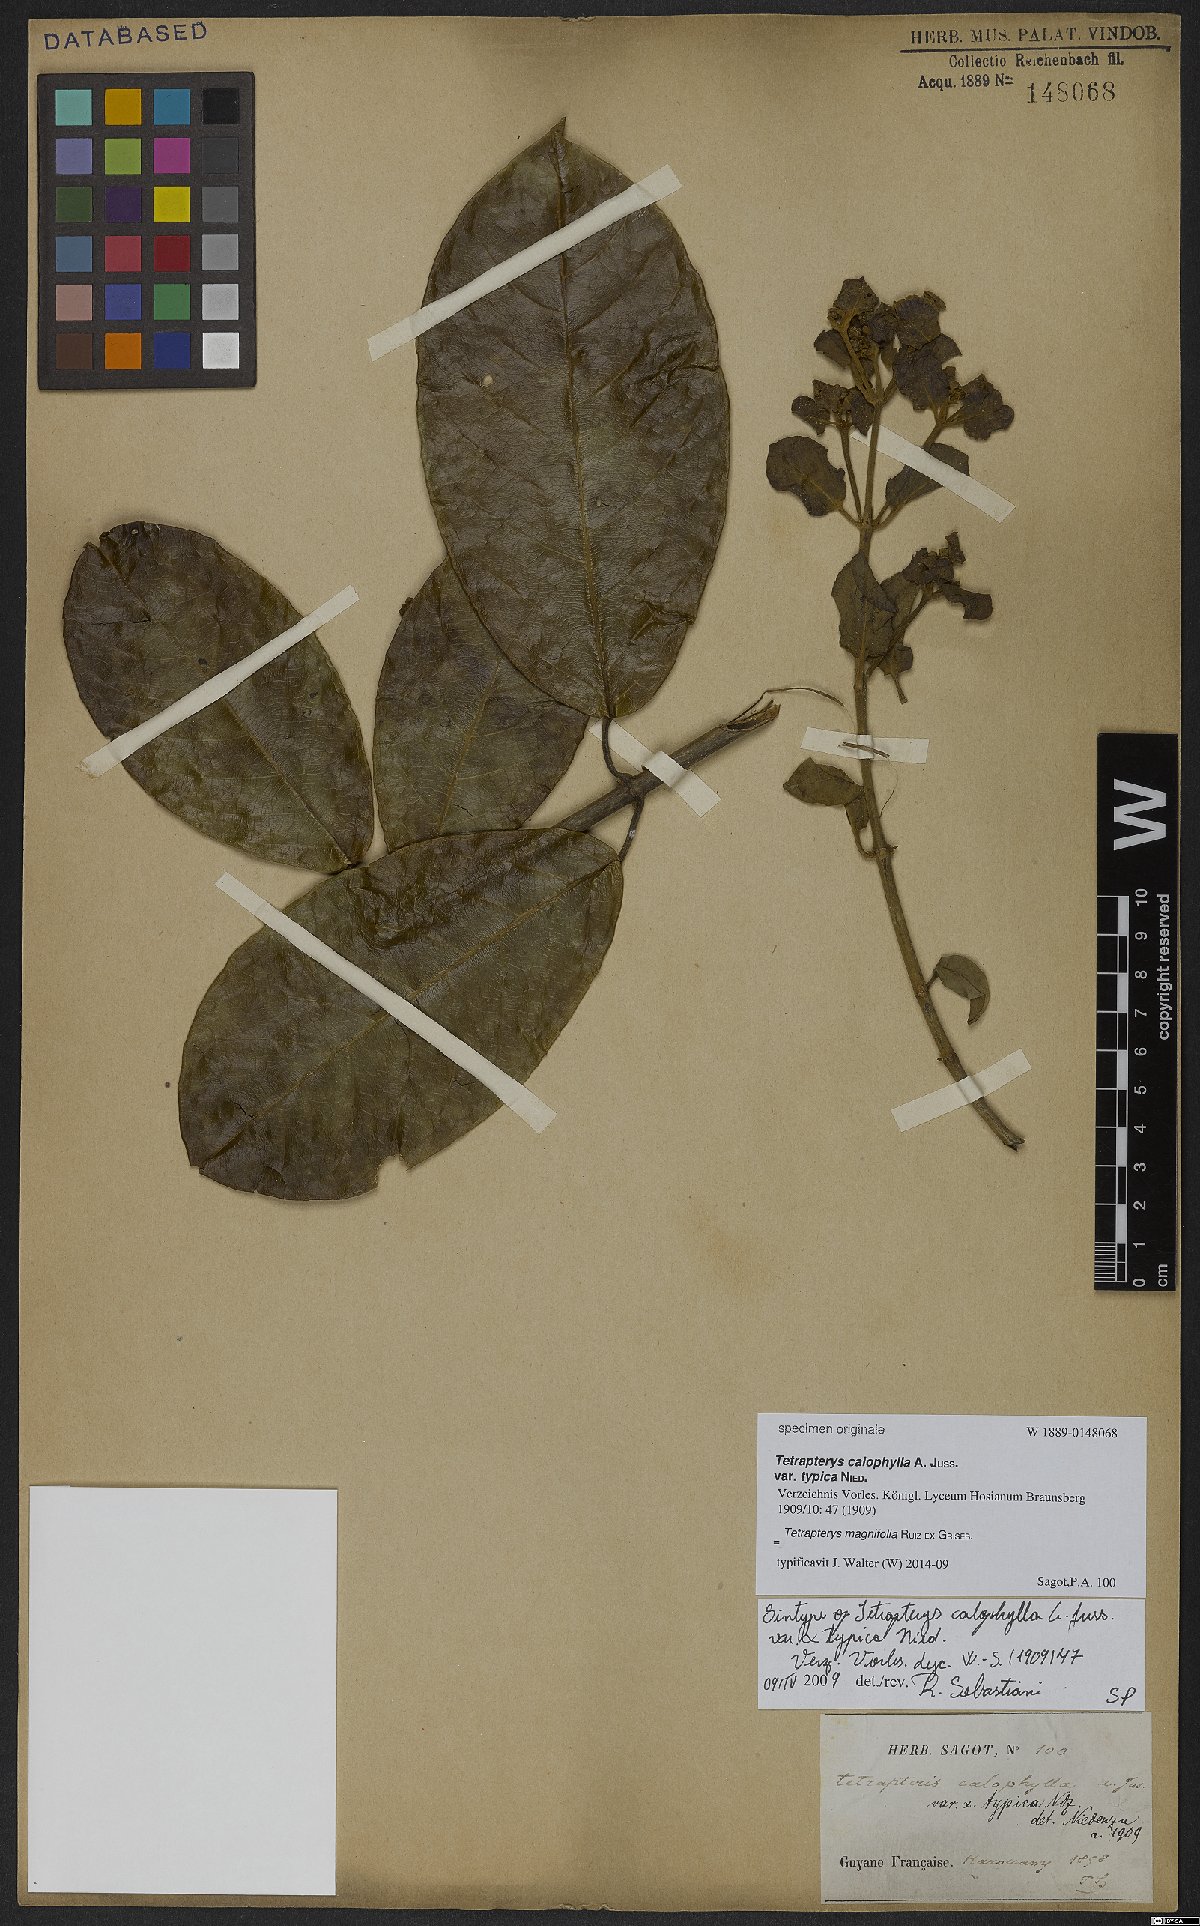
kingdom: Plantae
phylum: Tracheophyta
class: Magnoliopsida
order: Malpighiales
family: Malpighiaceae
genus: Tetrapterys
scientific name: Tetrapterys magnifolia
